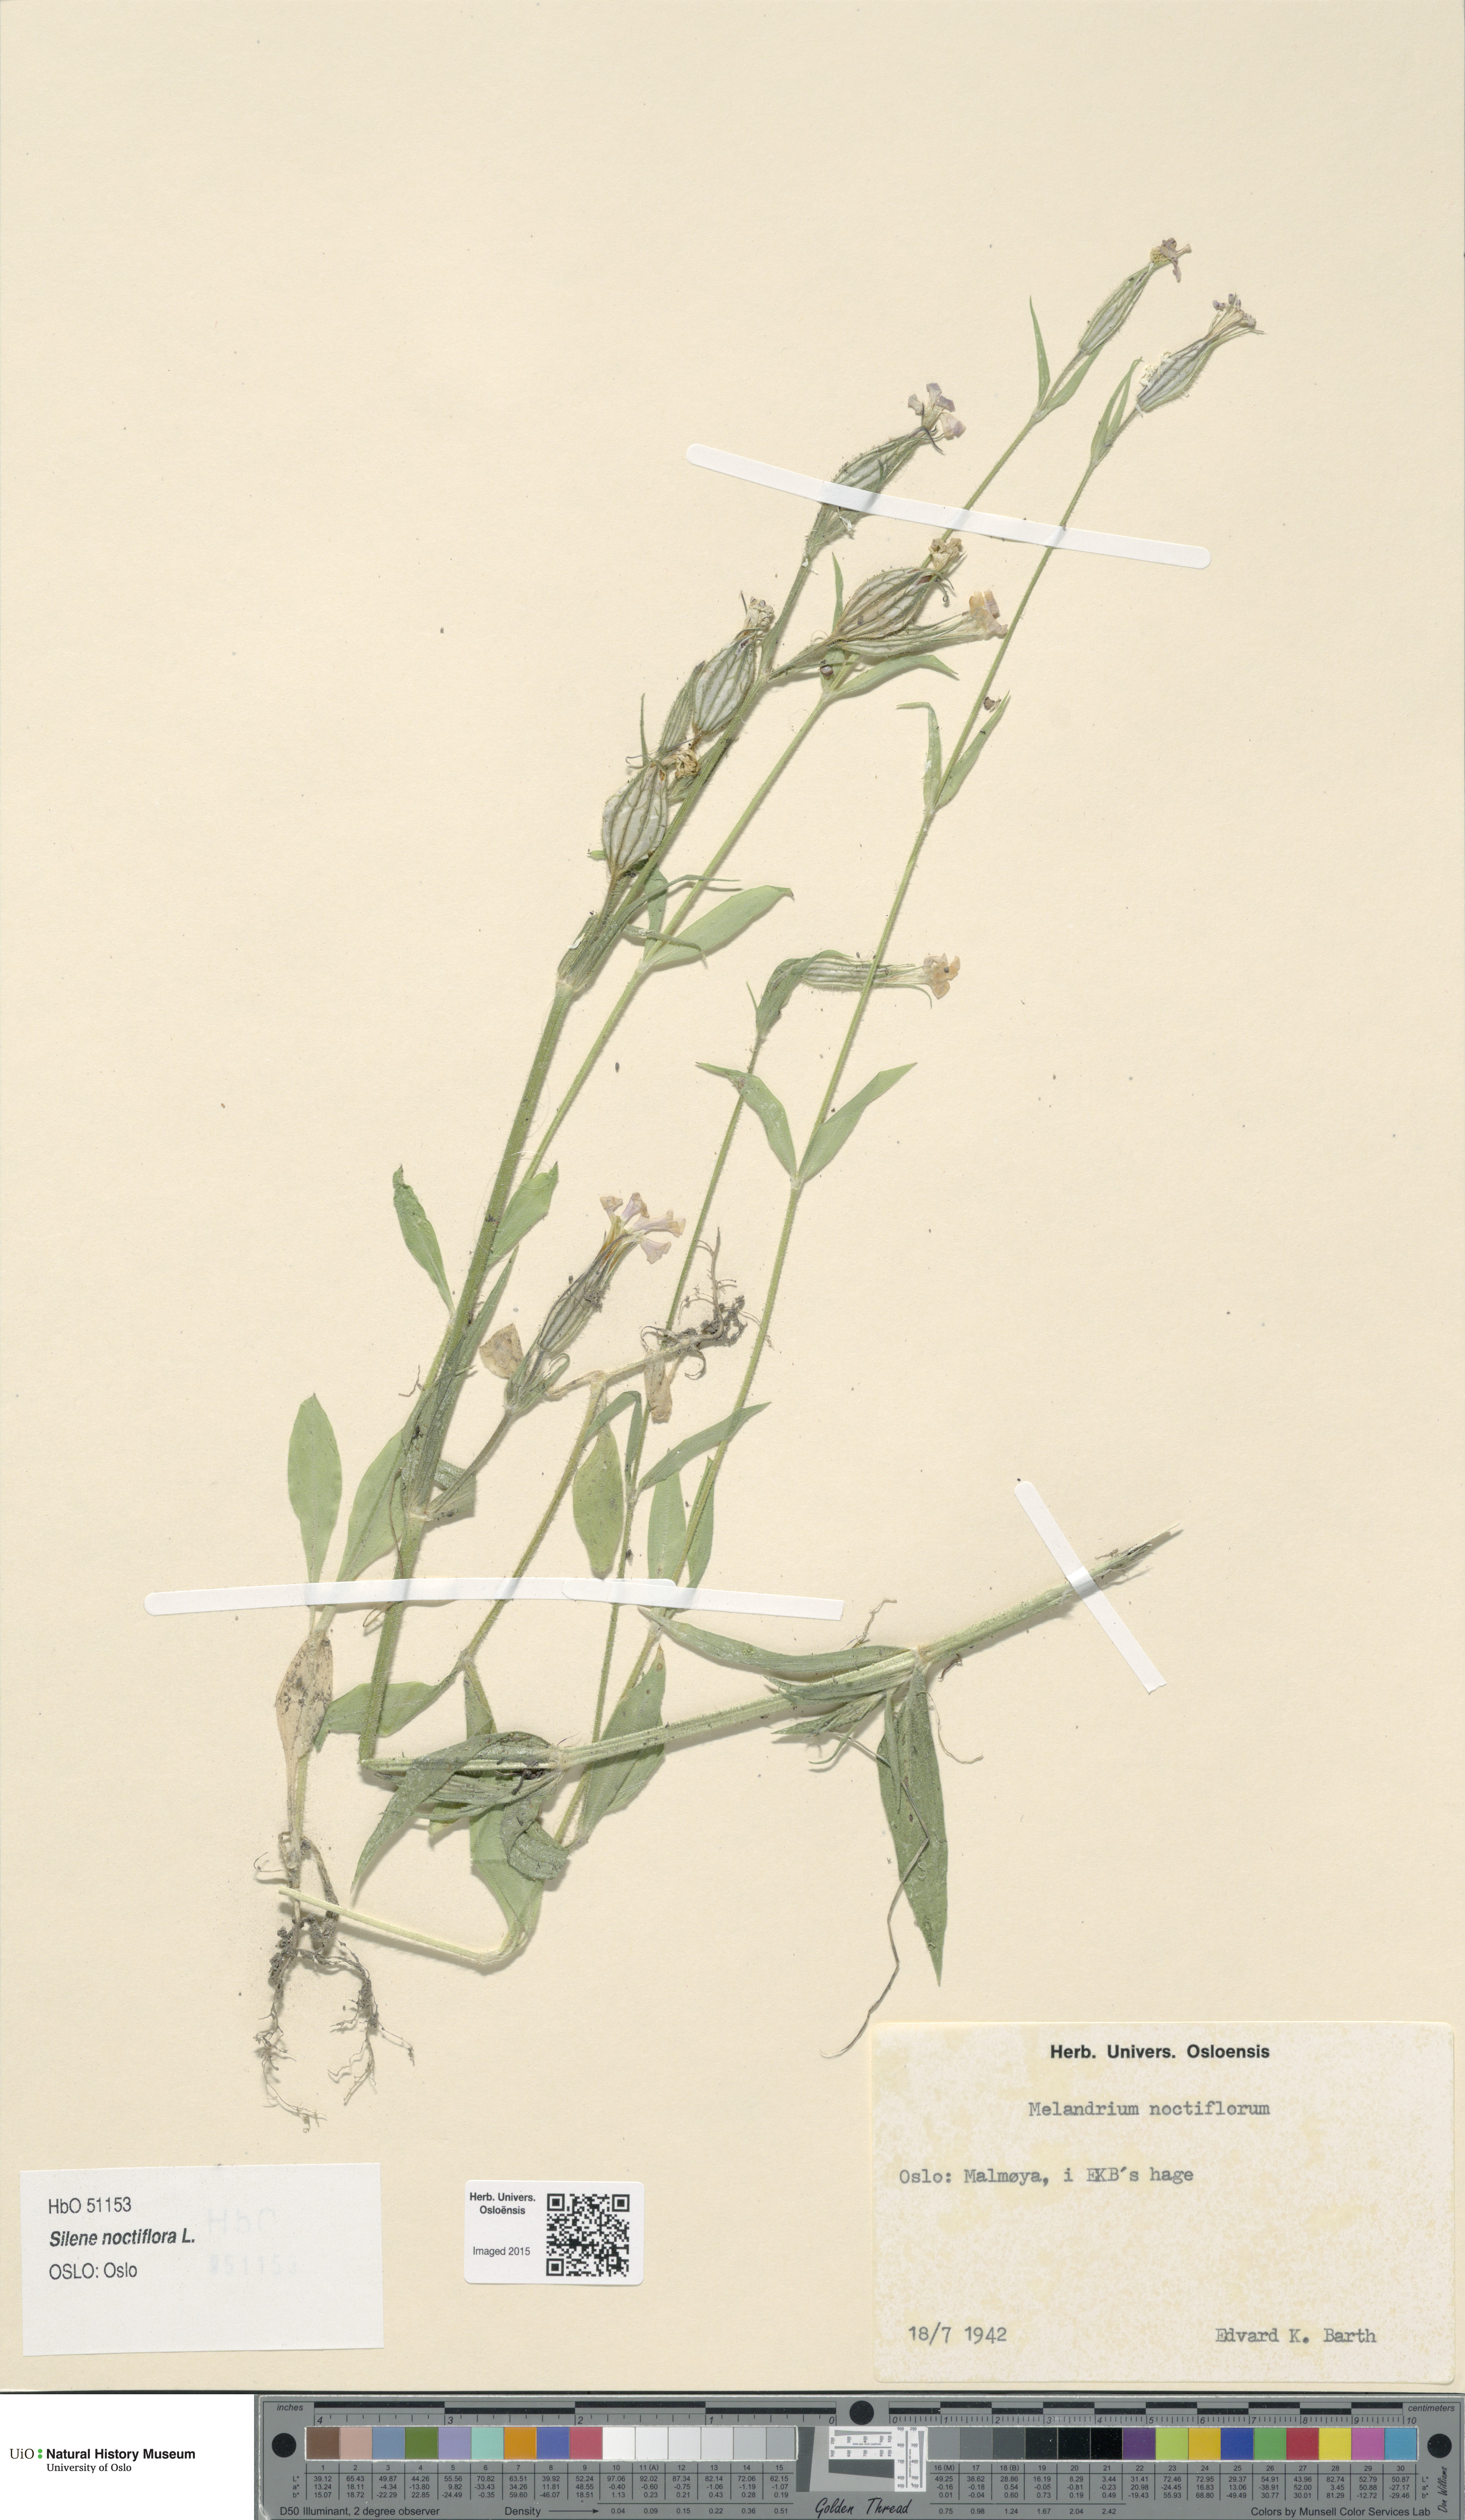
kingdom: Plantae
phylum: Tracheophyta
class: Magnoliopsida
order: Caryophyllales
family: Caryophyllaceae
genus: Silene
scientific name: Silene noctiflora
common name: Night-flowering catchfly
